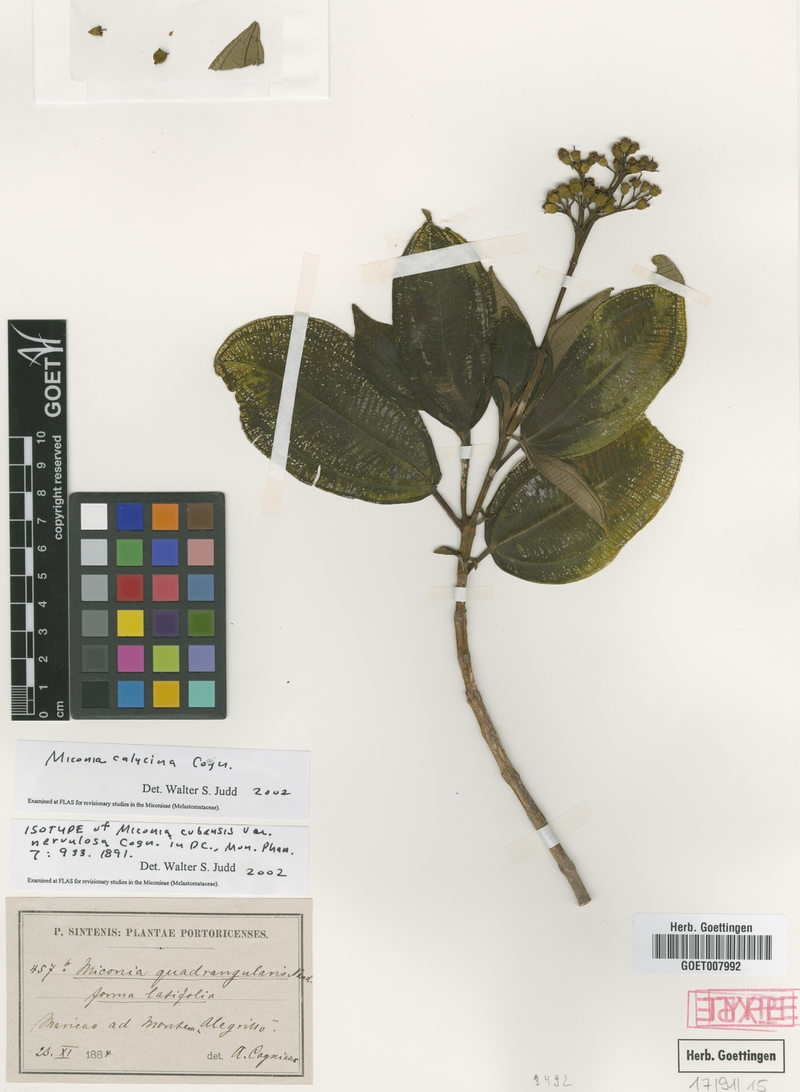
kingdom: Plantae
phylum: Tracheophyta
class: Magnoliopsida
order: Myrtales
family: Melastomataceae
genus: Miconia
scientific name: Miconia calycina
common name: Forest johnnyberry
